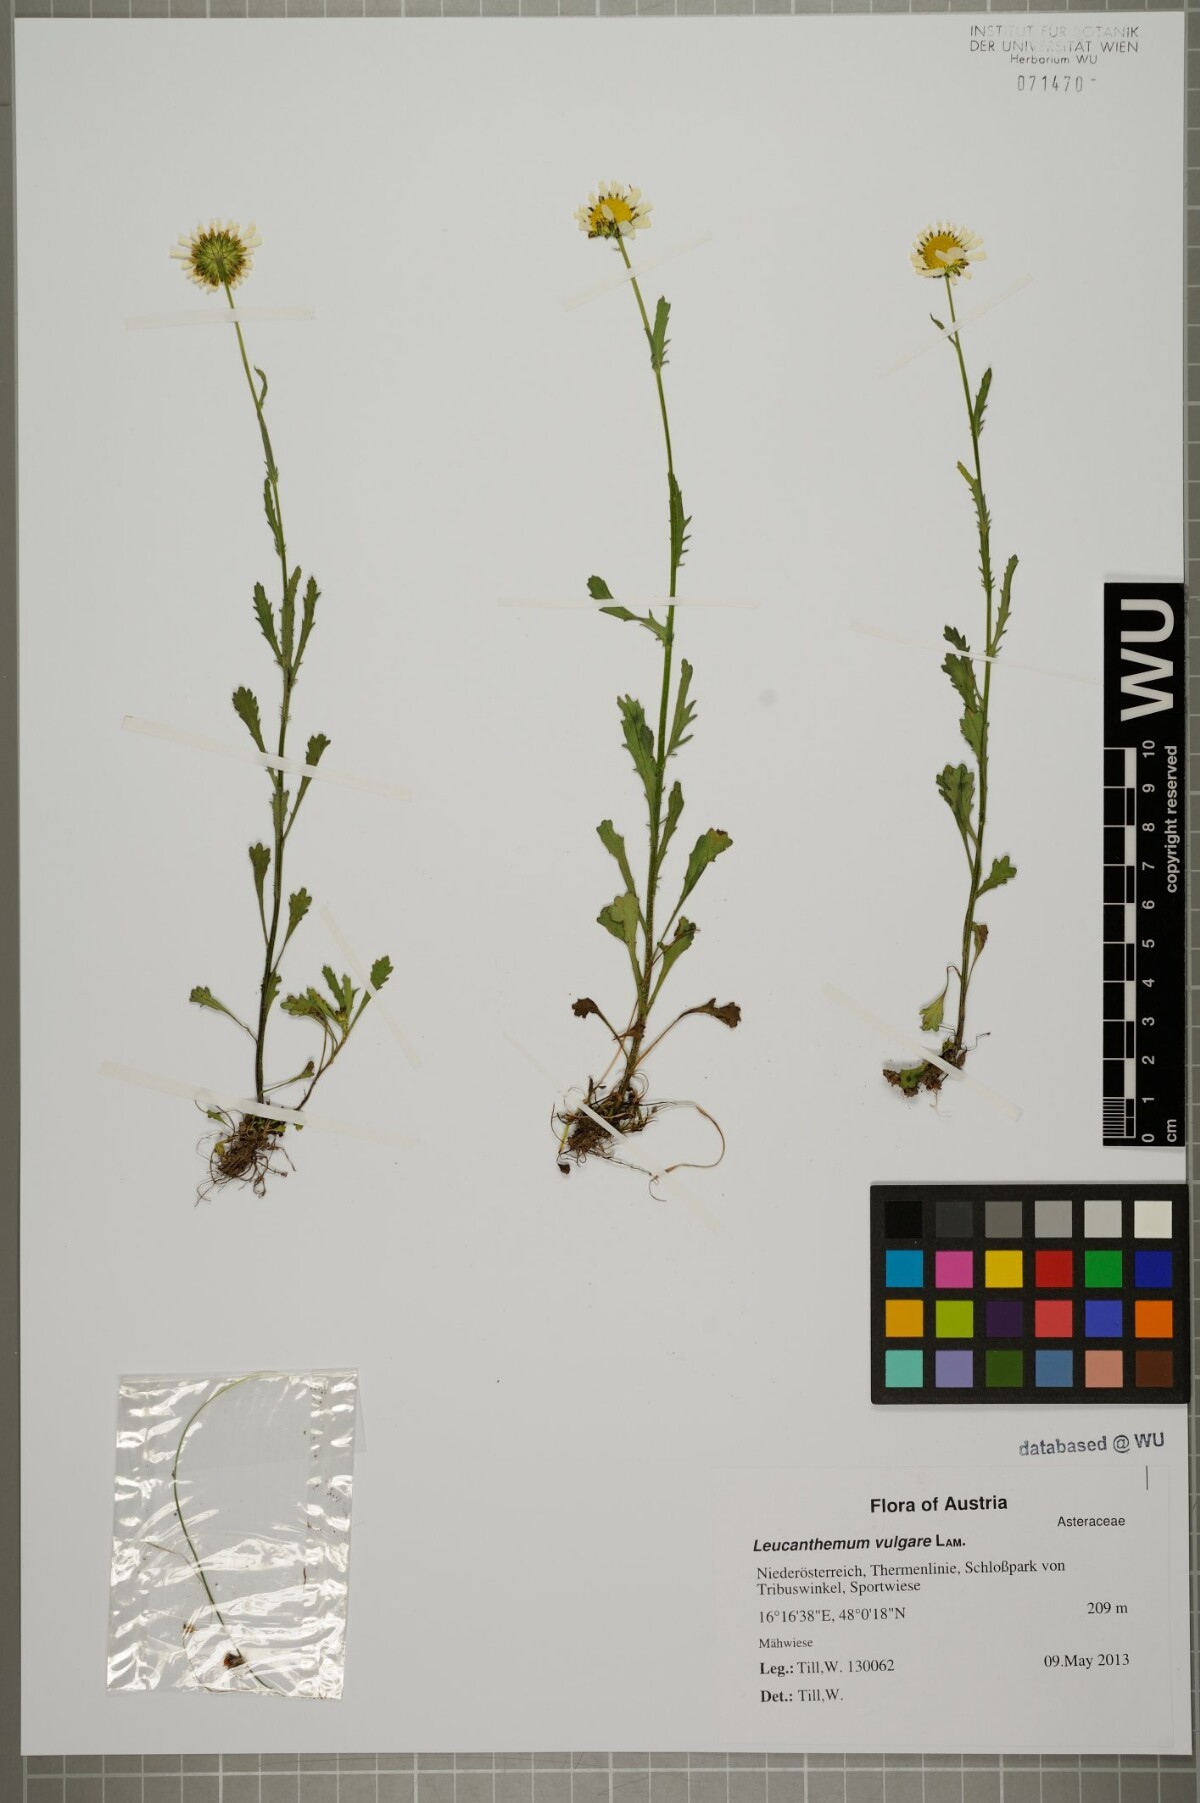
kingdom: Plantae
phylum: Tracheophyta
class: Magnoliopsida
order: Asterales
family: Asteraceae
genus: Leucanthemum
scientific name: Leucanthemum vulgare
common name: Oxeye daisy
